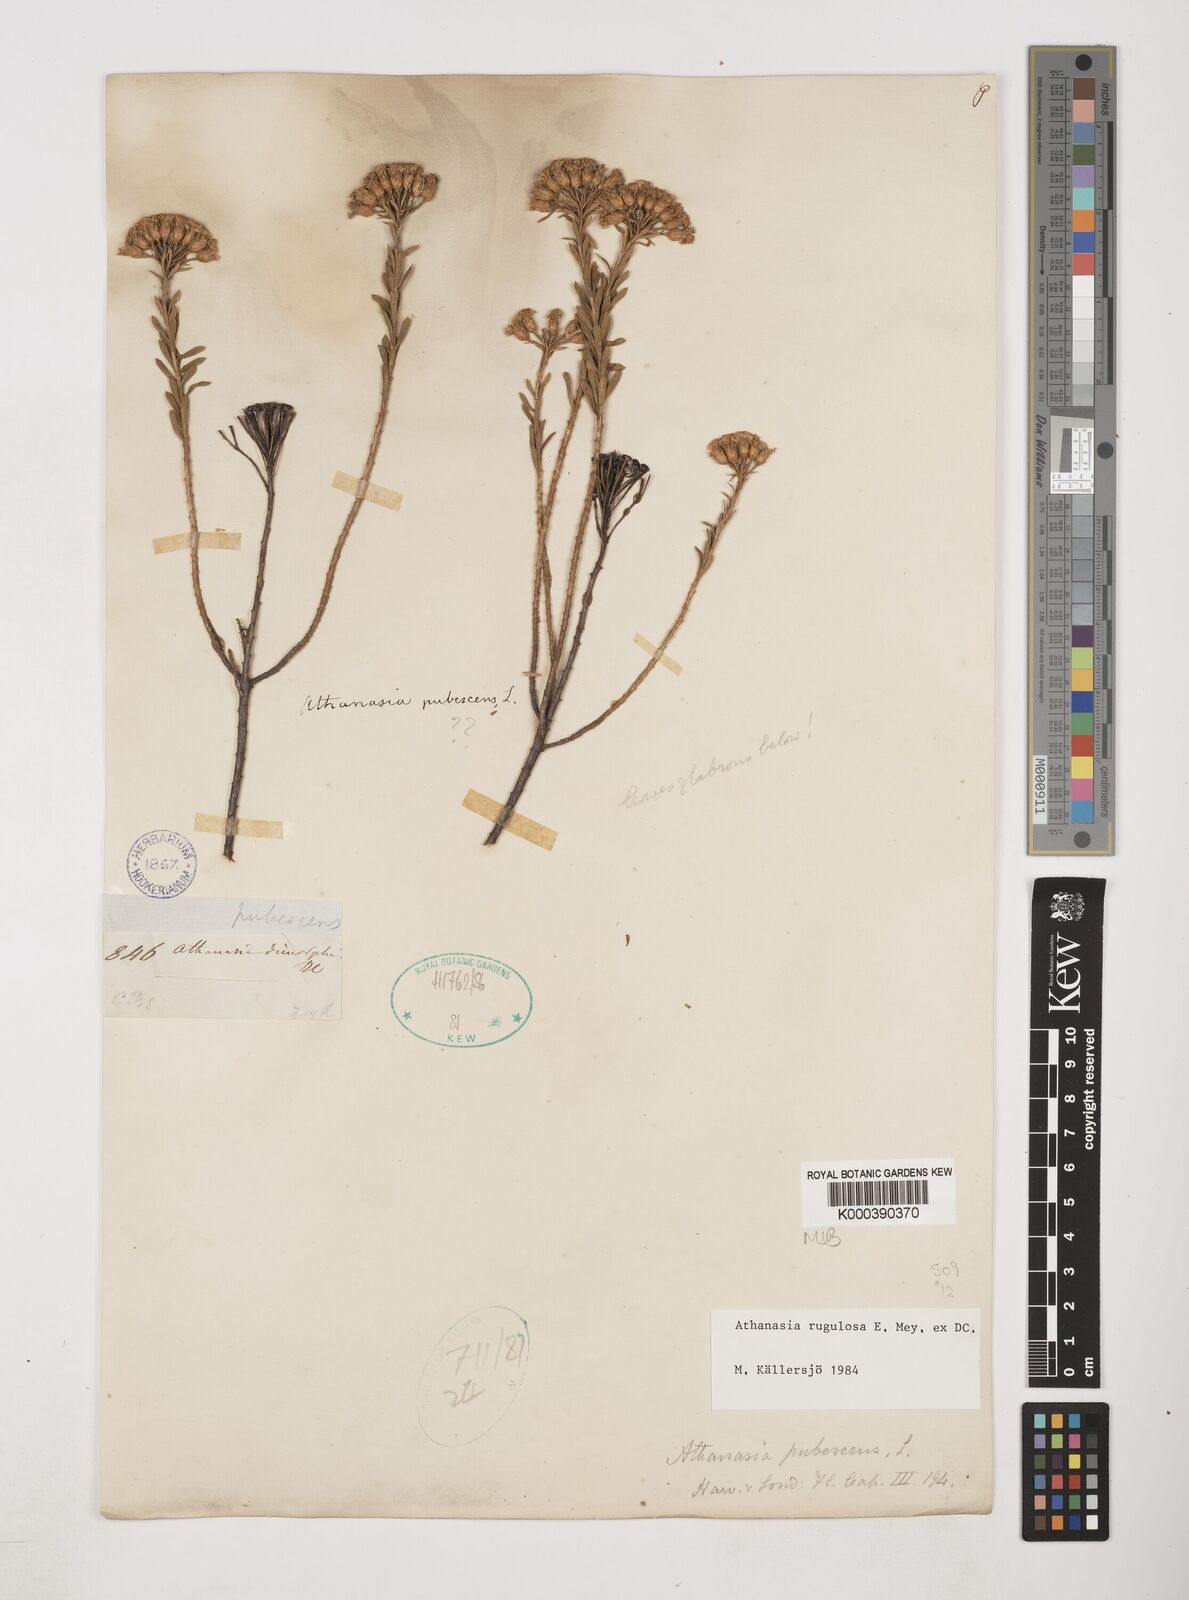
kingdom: Plantae
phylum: Tracheophyta
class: Magnoliopsida
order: Asterales
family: Asteraceae
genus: Athanasia
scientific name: Athanasia rugulosa
